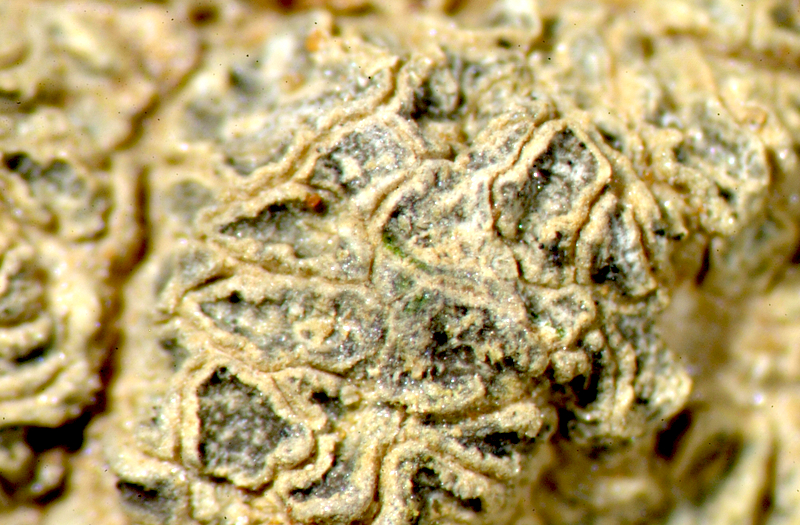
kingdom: Fungi
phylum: Ascomycota
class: Lecanoromycetes
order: Caliciales
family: Physciaceae
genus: Physcia
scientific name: Physcia
